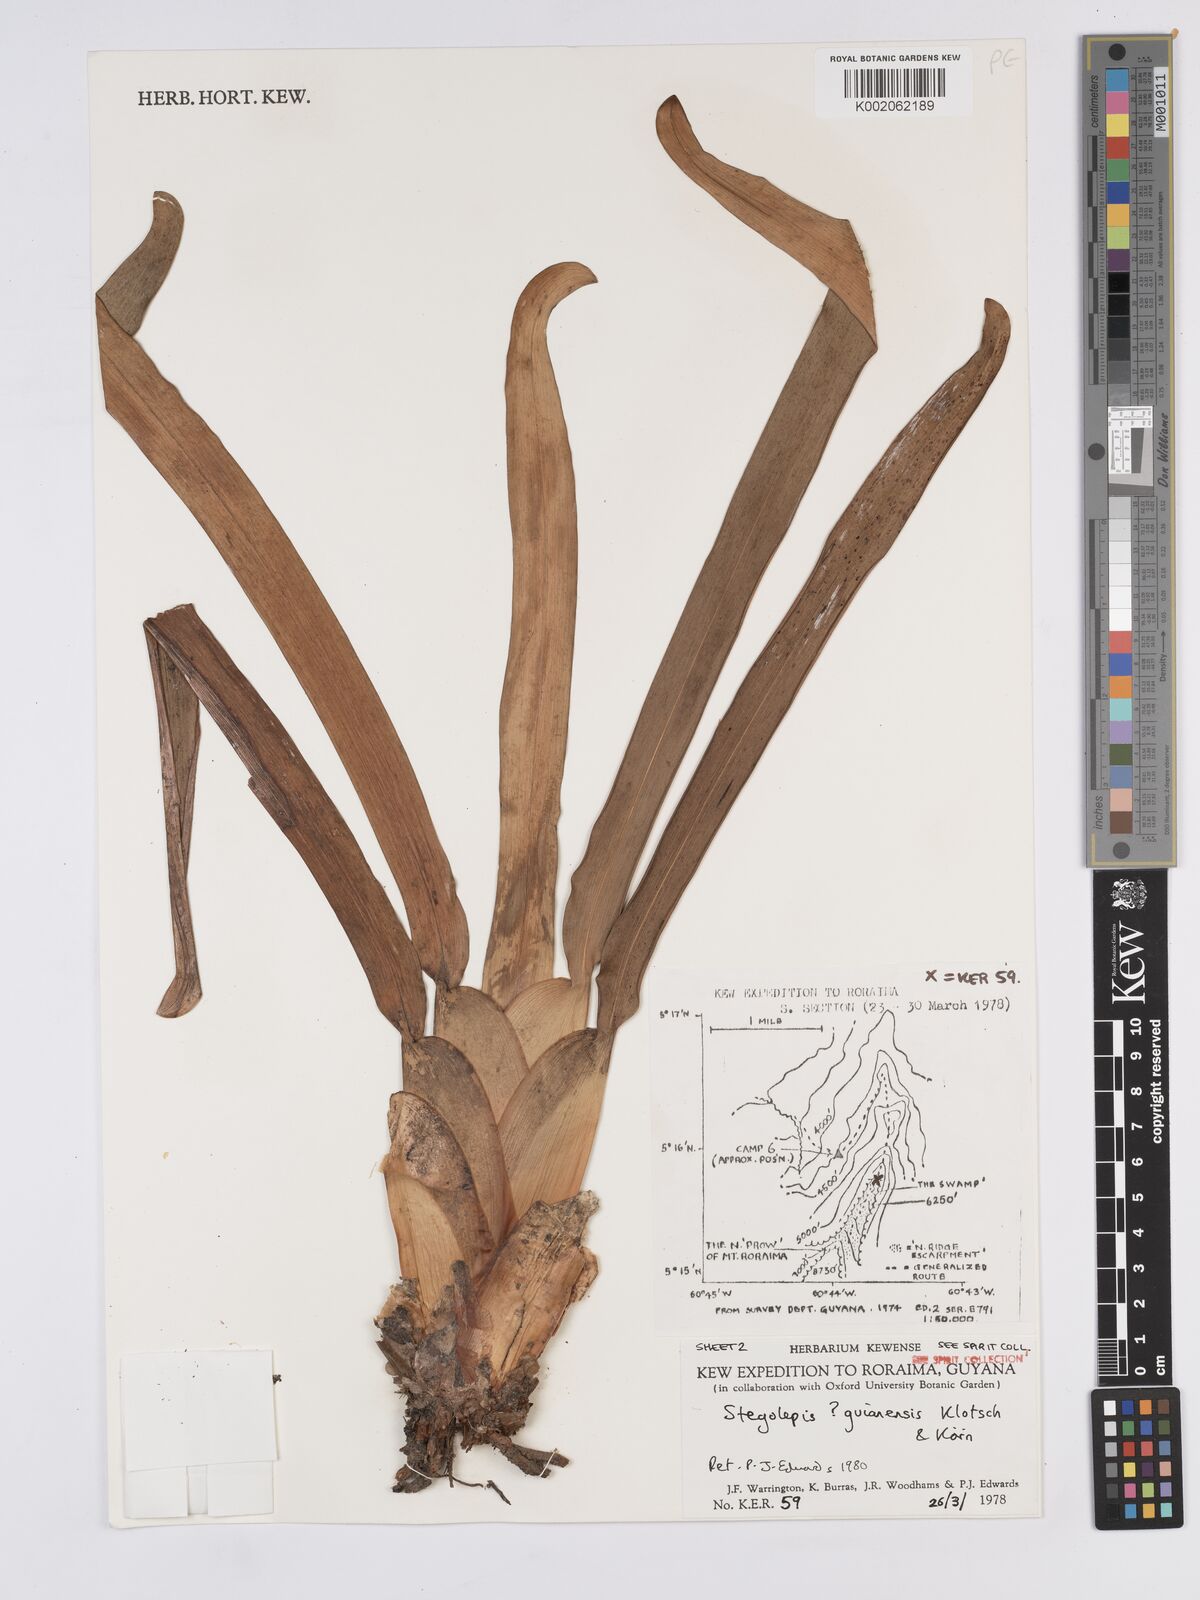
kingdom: Plantae
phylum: Tracheophyta
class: Liliopsida
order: Poales
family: Rapateaceae
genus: Stegolepis
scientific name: Stegolepis guianensis
